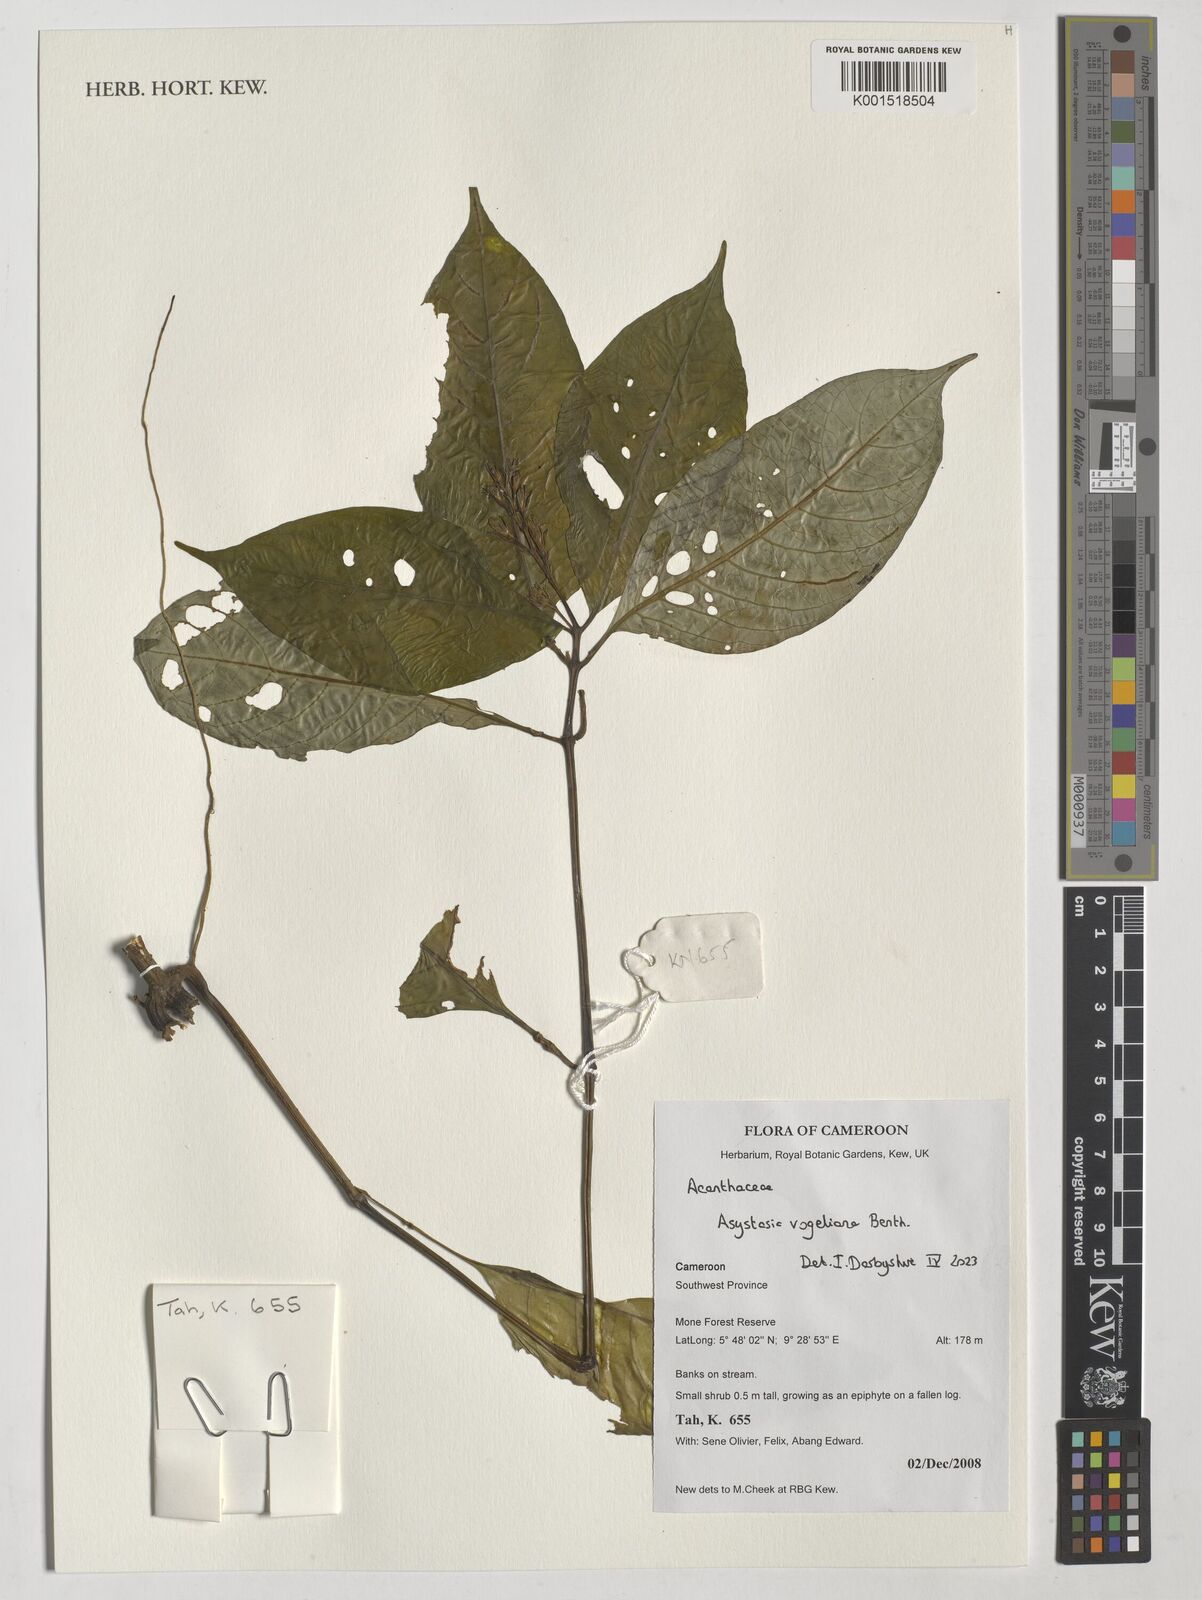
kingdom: Plantae
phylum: Tracheophyta
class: Magnoliopsida
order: Lamiales
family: Acanthaceae
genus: Asystasia
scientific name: Asystasia vogeliana
